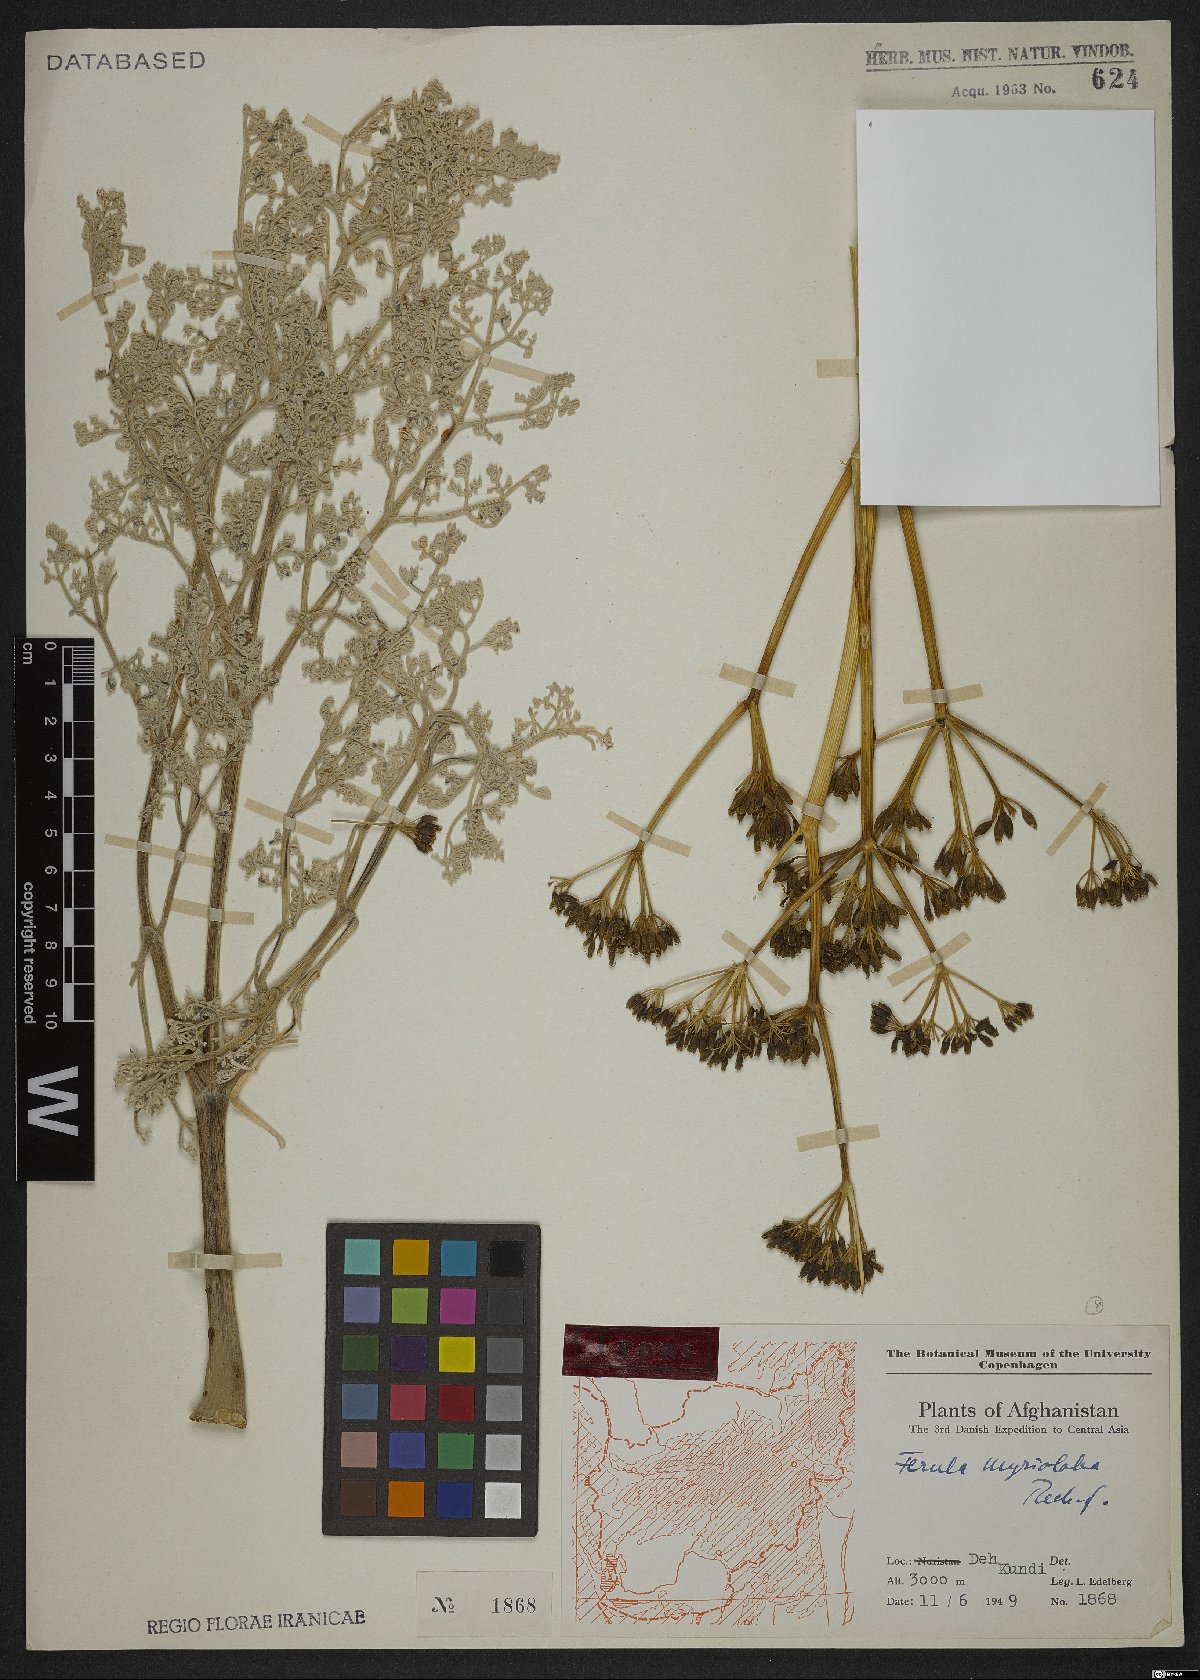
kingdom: Plantae
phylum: Tracheophyta
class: Magnoliopsida
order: Apiales
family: Apiaceae
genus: Ferula
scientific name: Ferula myrioloba
